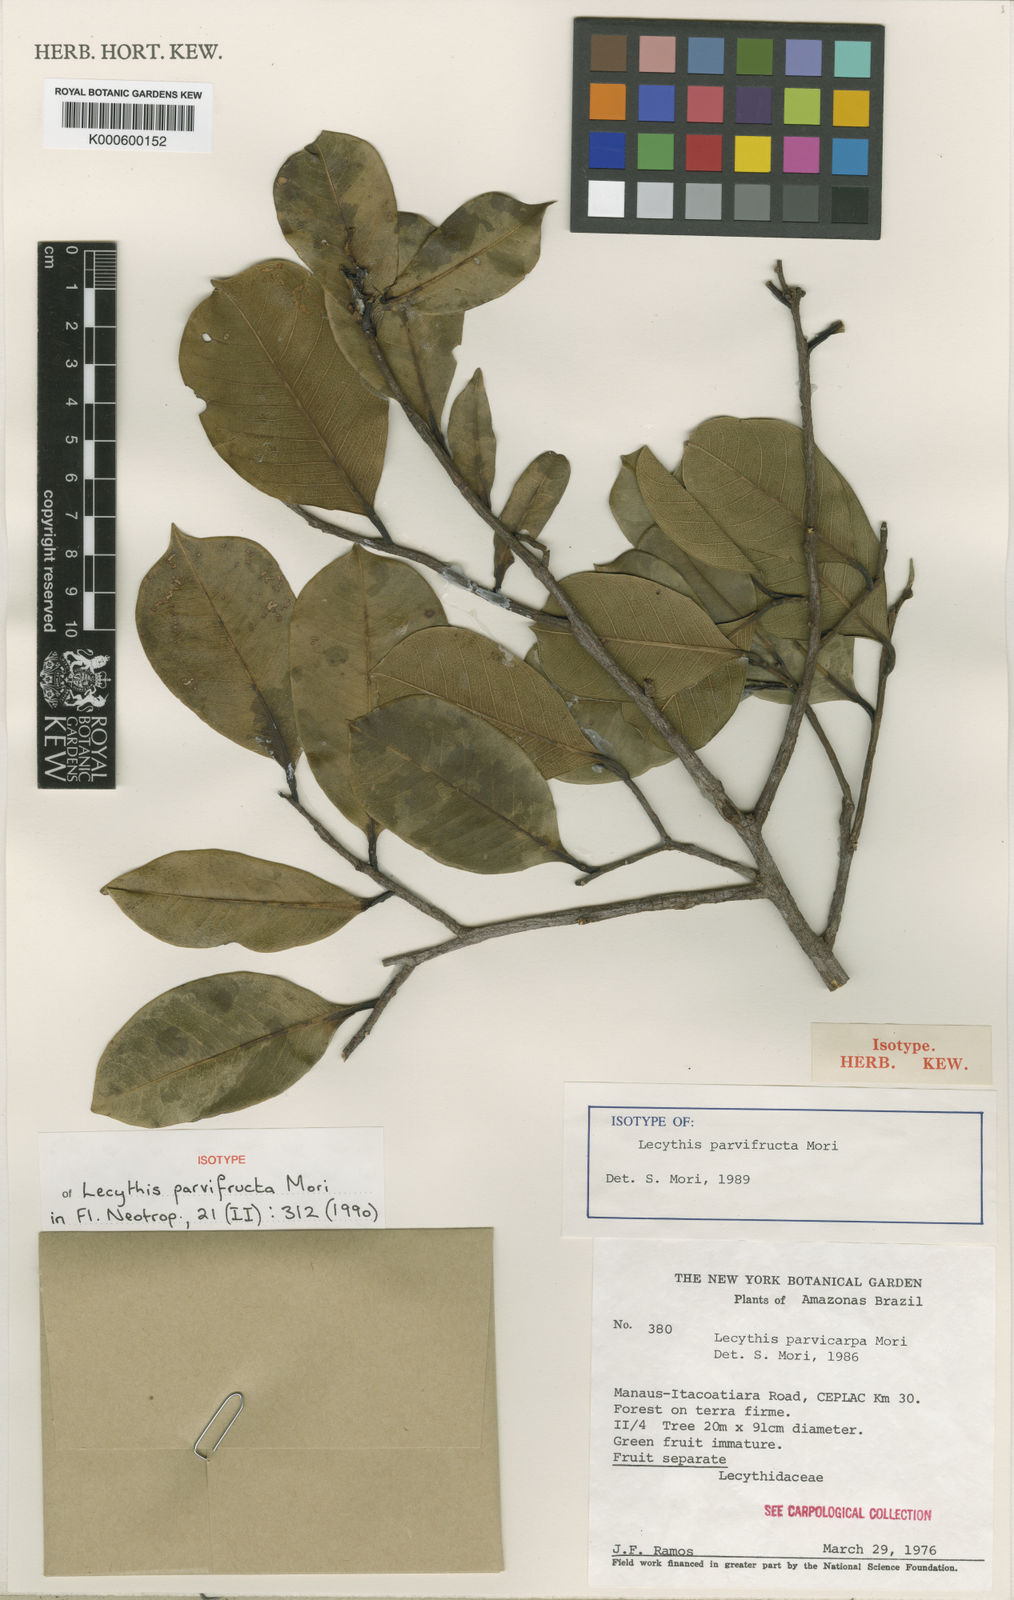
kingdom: Plantae
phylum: Tracheophyta
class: Magnoliopsida
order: Ericales
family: Lecythidaceae
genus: Lecythis
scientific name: Lecythis parvifructa
